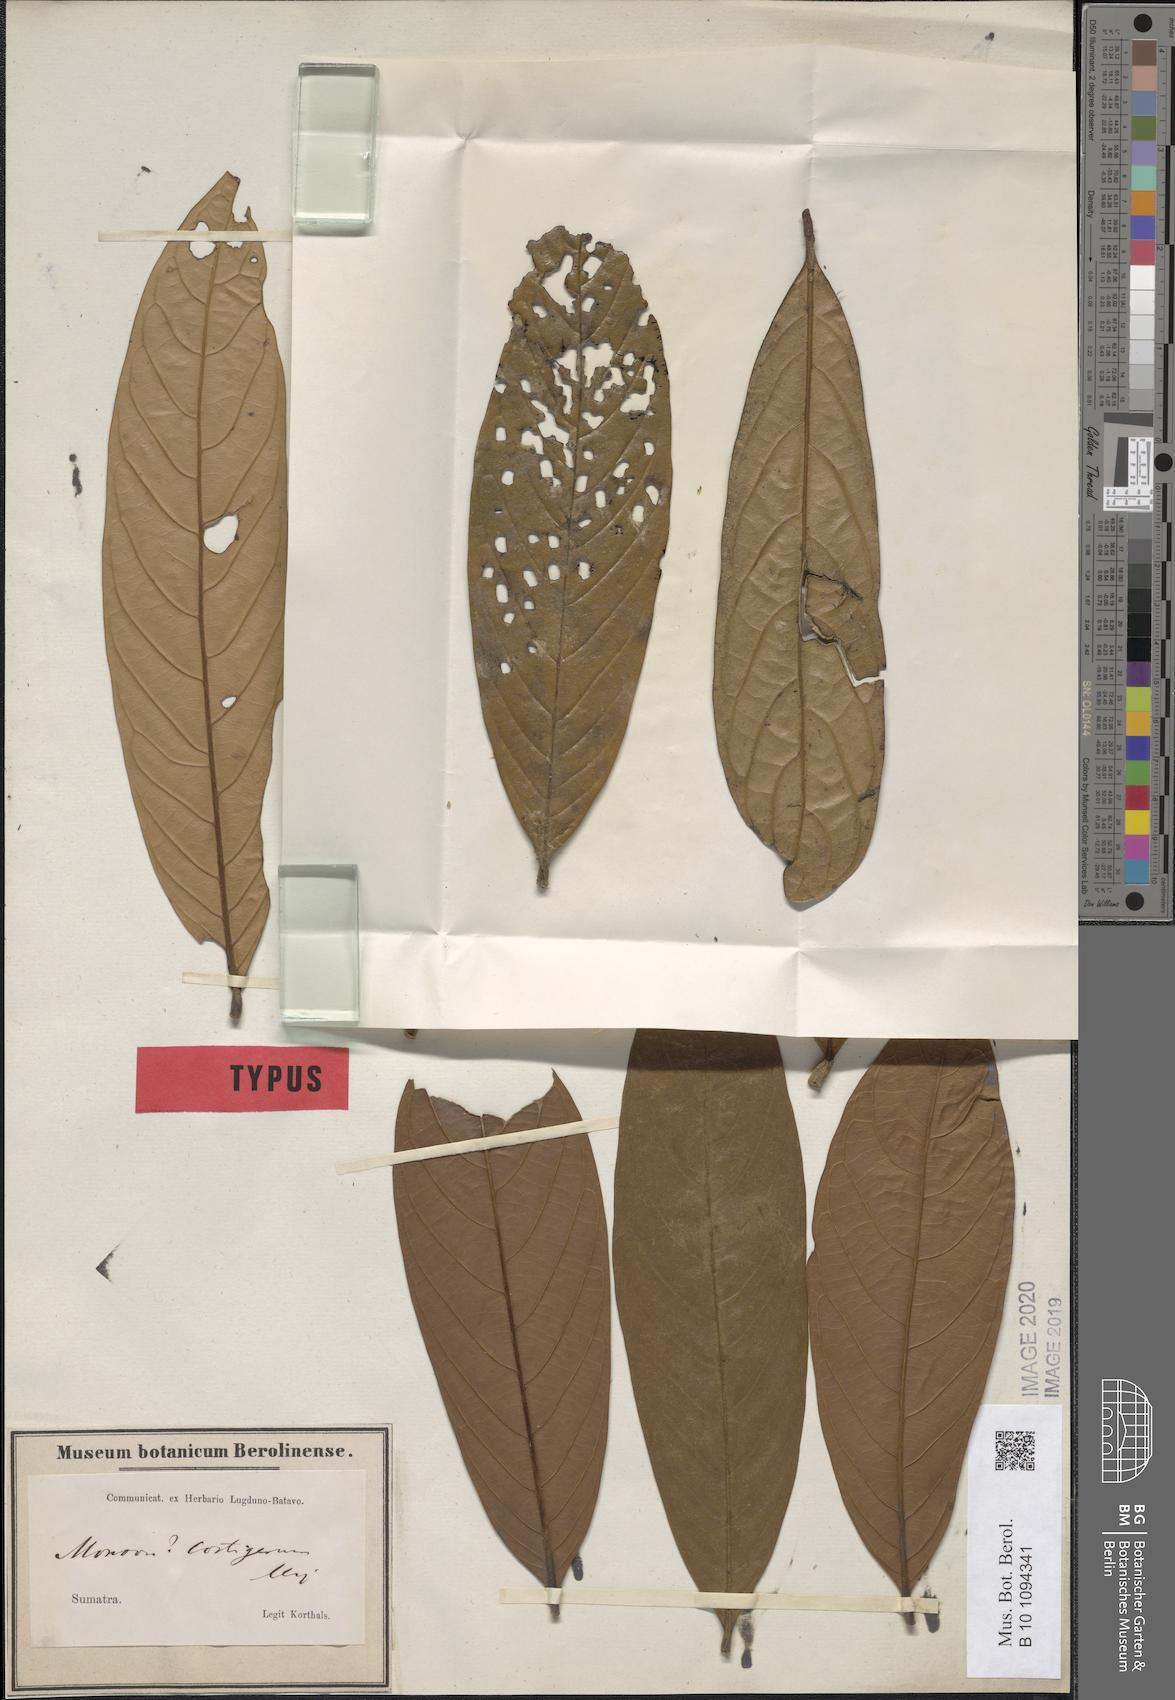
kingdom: Plantae
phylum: Tracheophyta
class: Magnoliopsida
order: Magnoliales
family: Annonaceae
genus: Monoon
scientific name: Monoon costigerum
